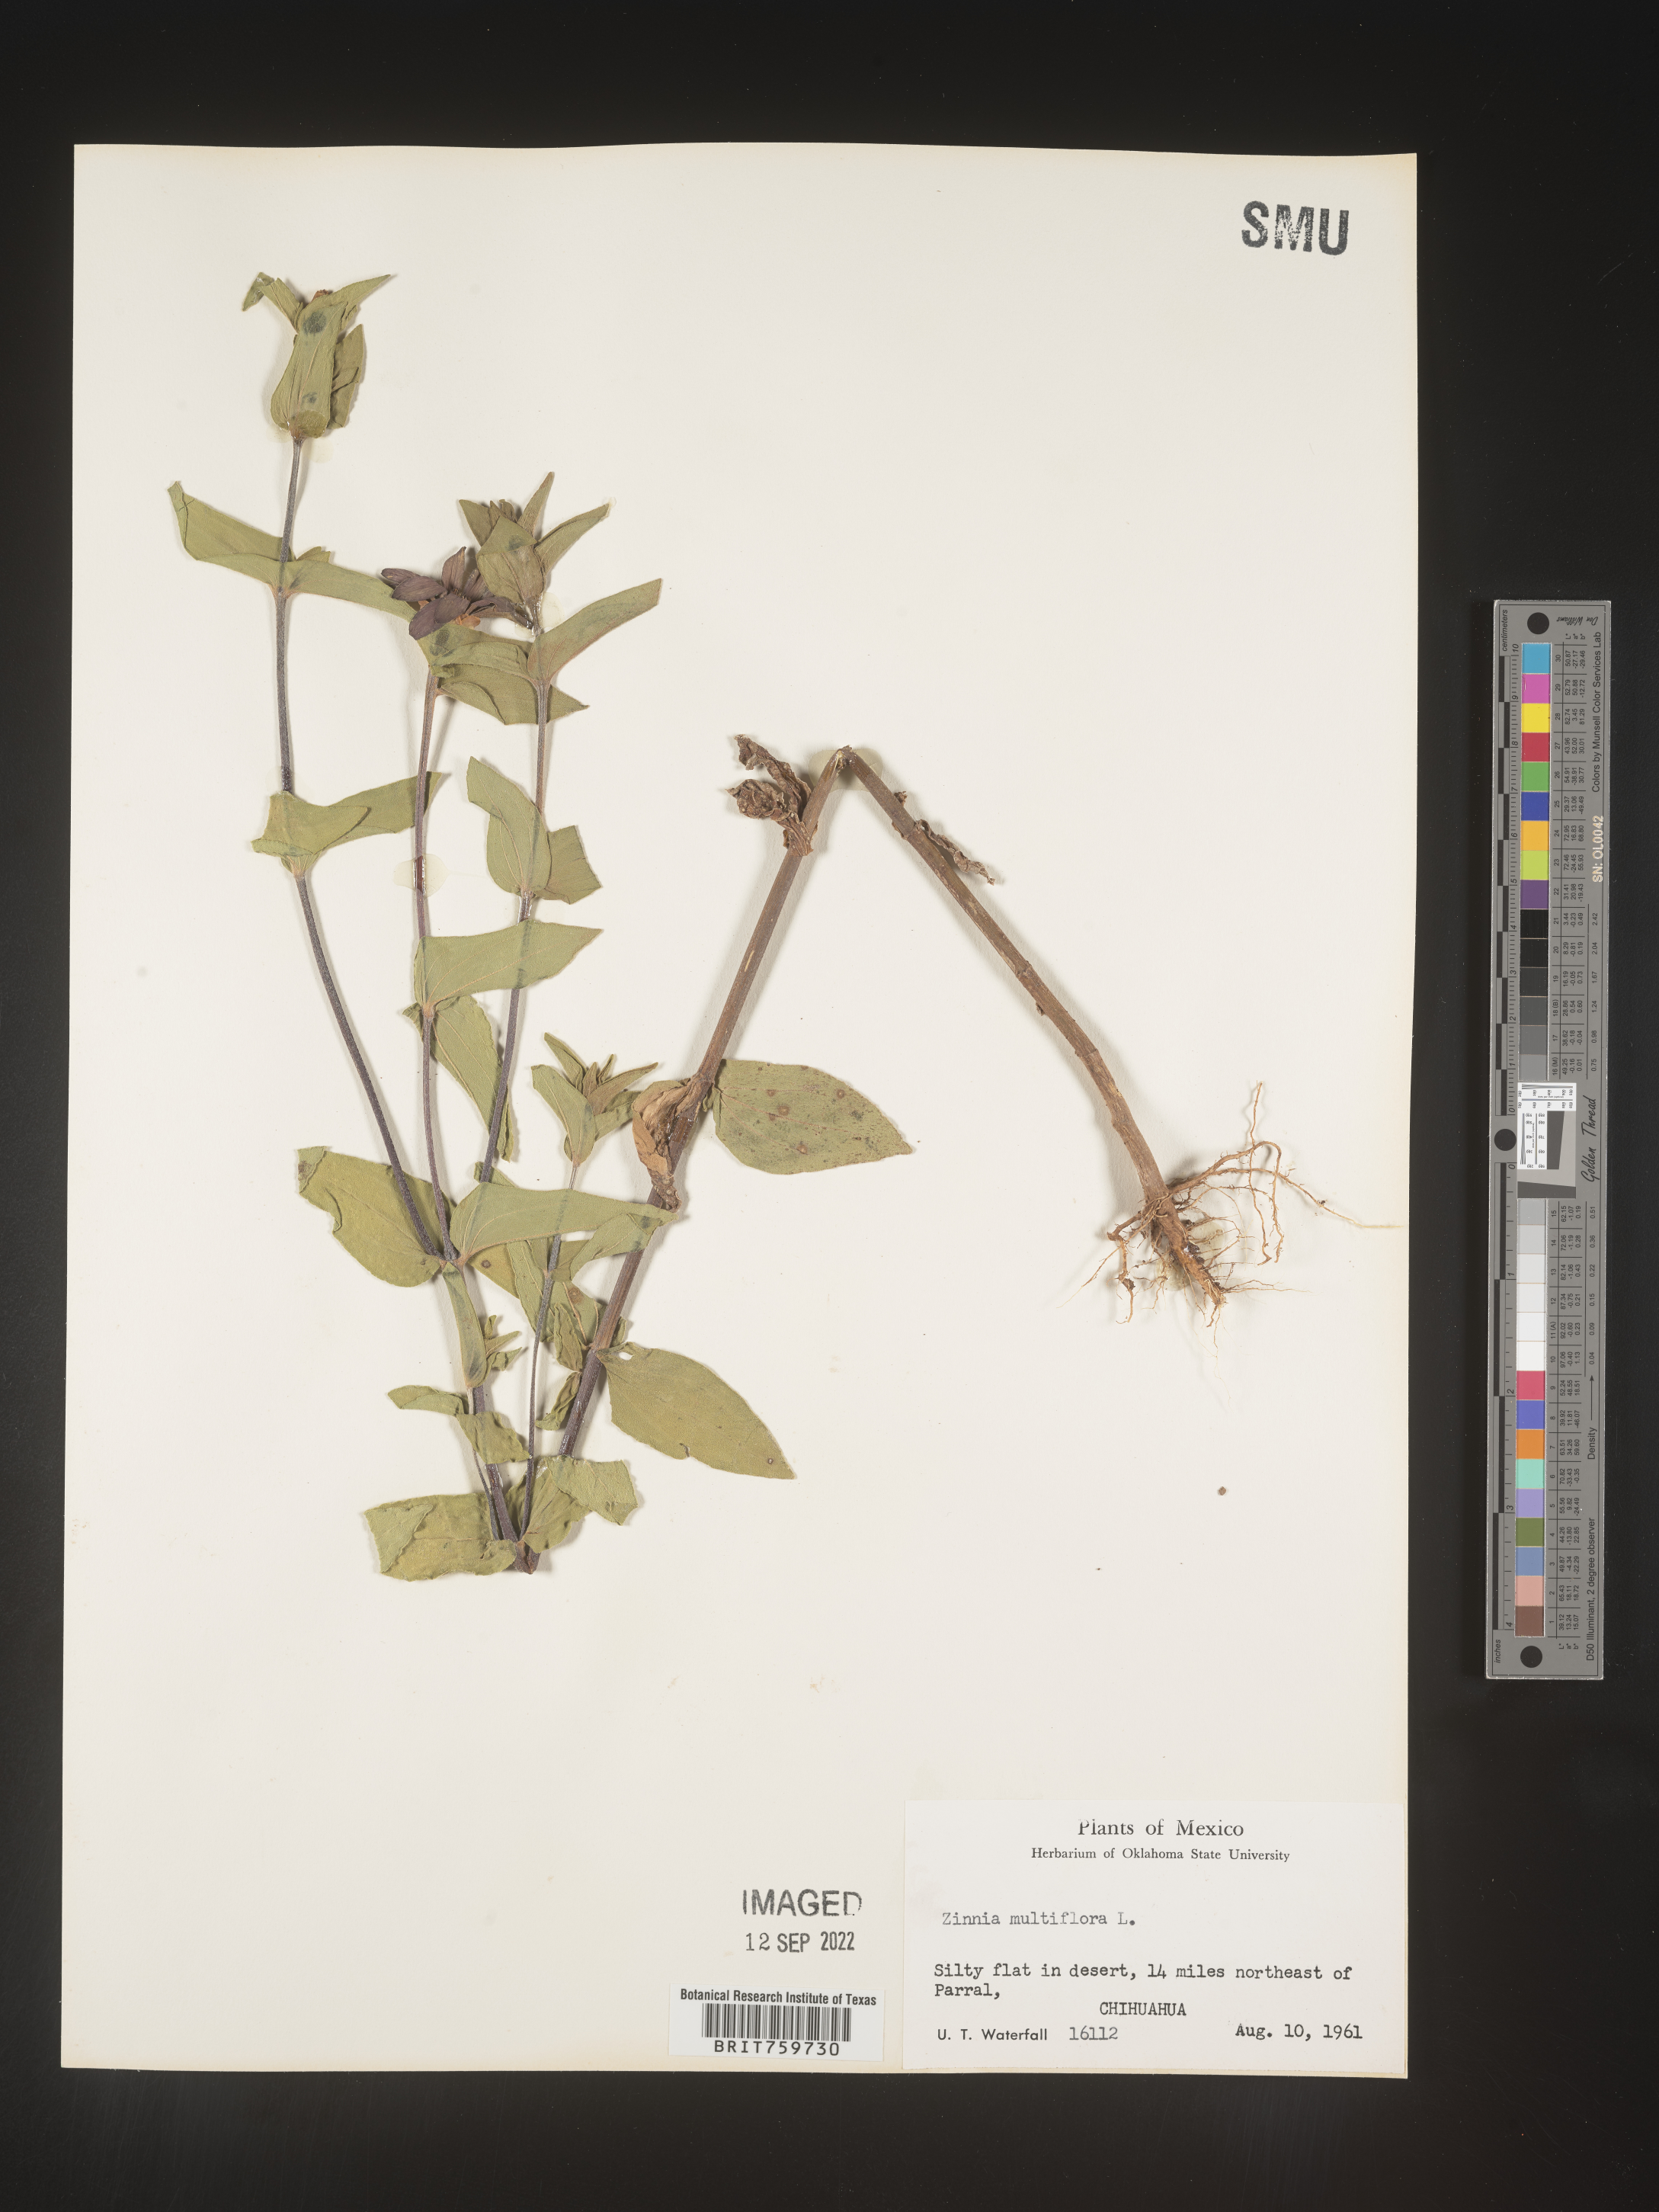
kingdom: Plantae
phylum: Tracheophyta
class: Magnoliopsida
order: Asterales
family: Asteraceae
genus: Zinnia
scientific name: Zinnia
